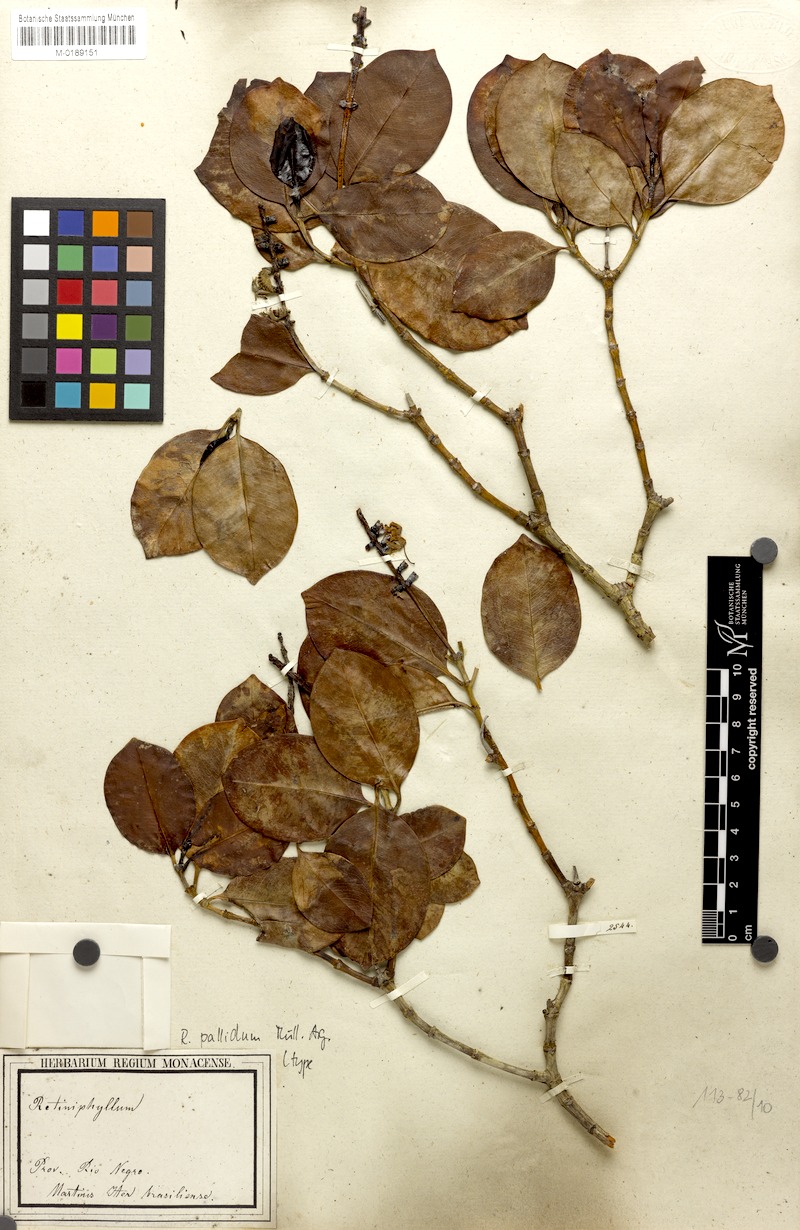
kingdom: Plantae
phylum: Tracheophyta
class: Magnoliopsida
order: Gentianales
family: Rubiaceae
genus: Retiniphyllum
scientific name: Retiniphyllum truncatum
